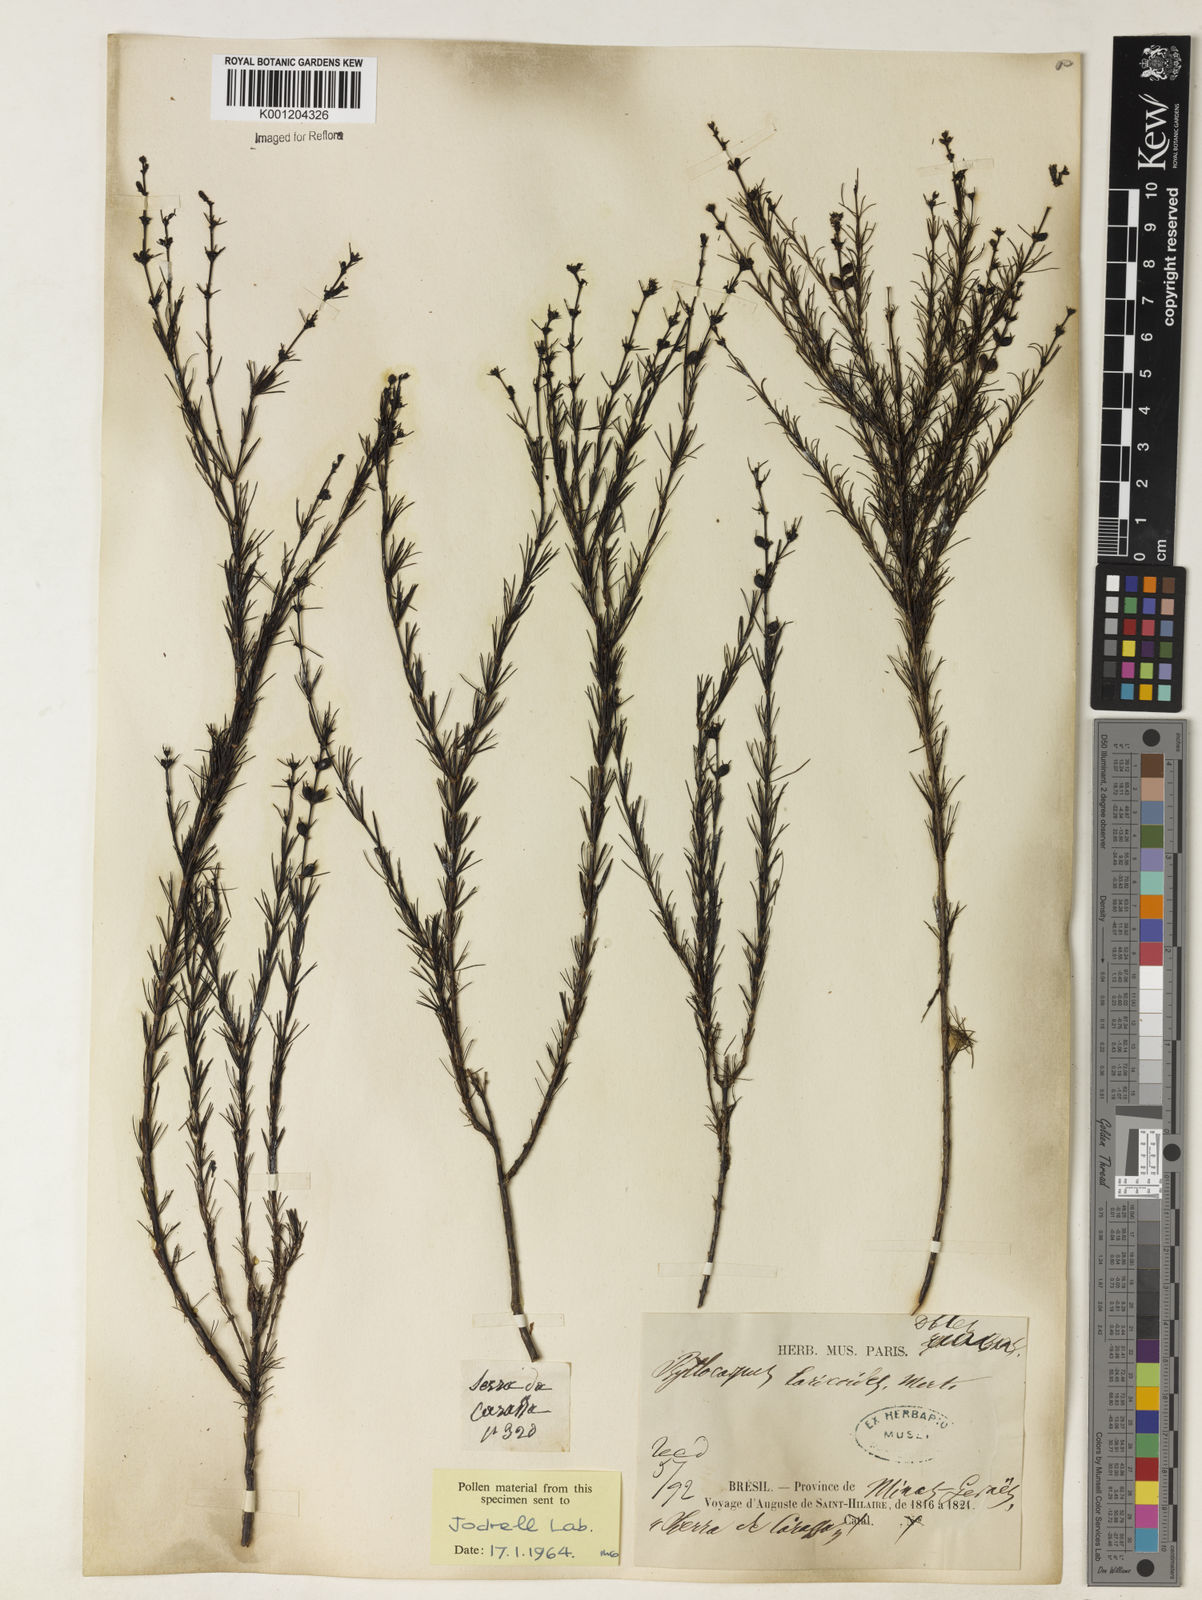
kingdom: Plantae
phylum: Tracheophyta
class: Magnoliopsida
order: Gentianales
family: Rubiaceae
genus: Psyllocarpus
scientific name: Psyllocarpus laricoides
